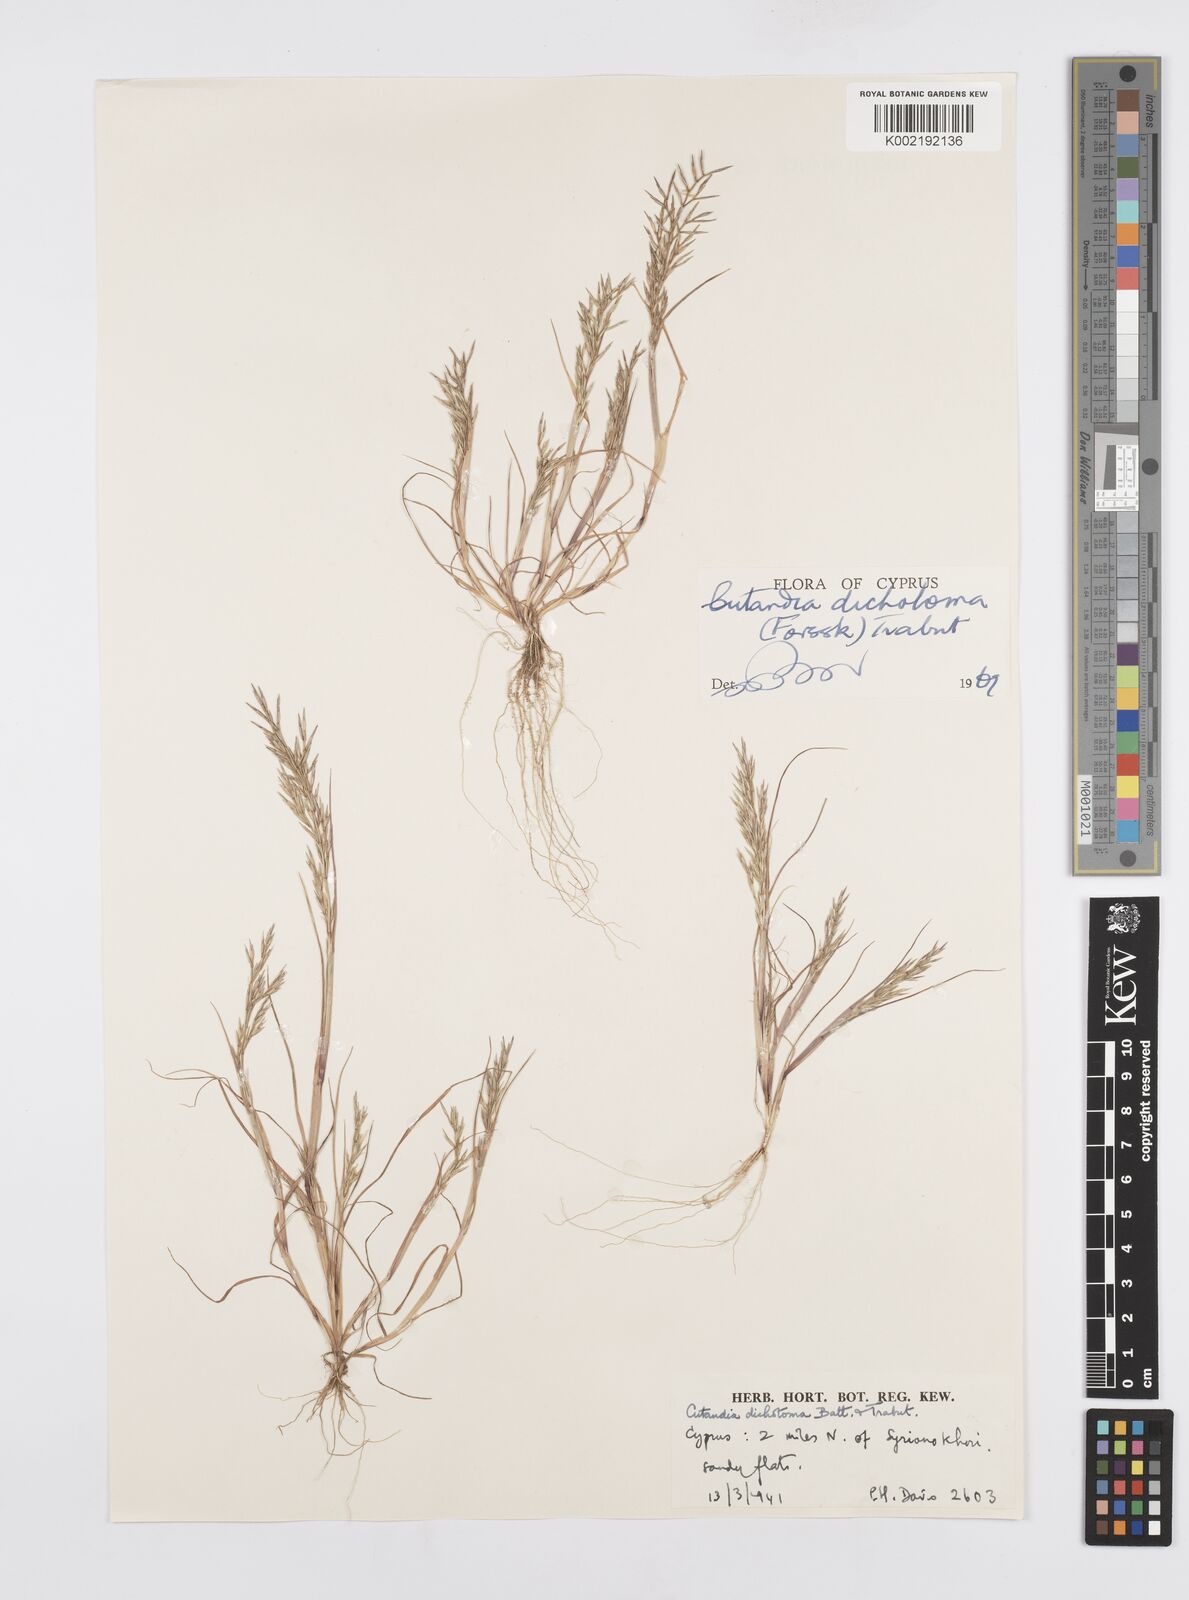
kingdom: Plantae
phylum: Tracheophyta
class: Liliopsida
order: Poales
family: Poaceae
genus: Cutandia
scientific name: Cutandia dichotoma
